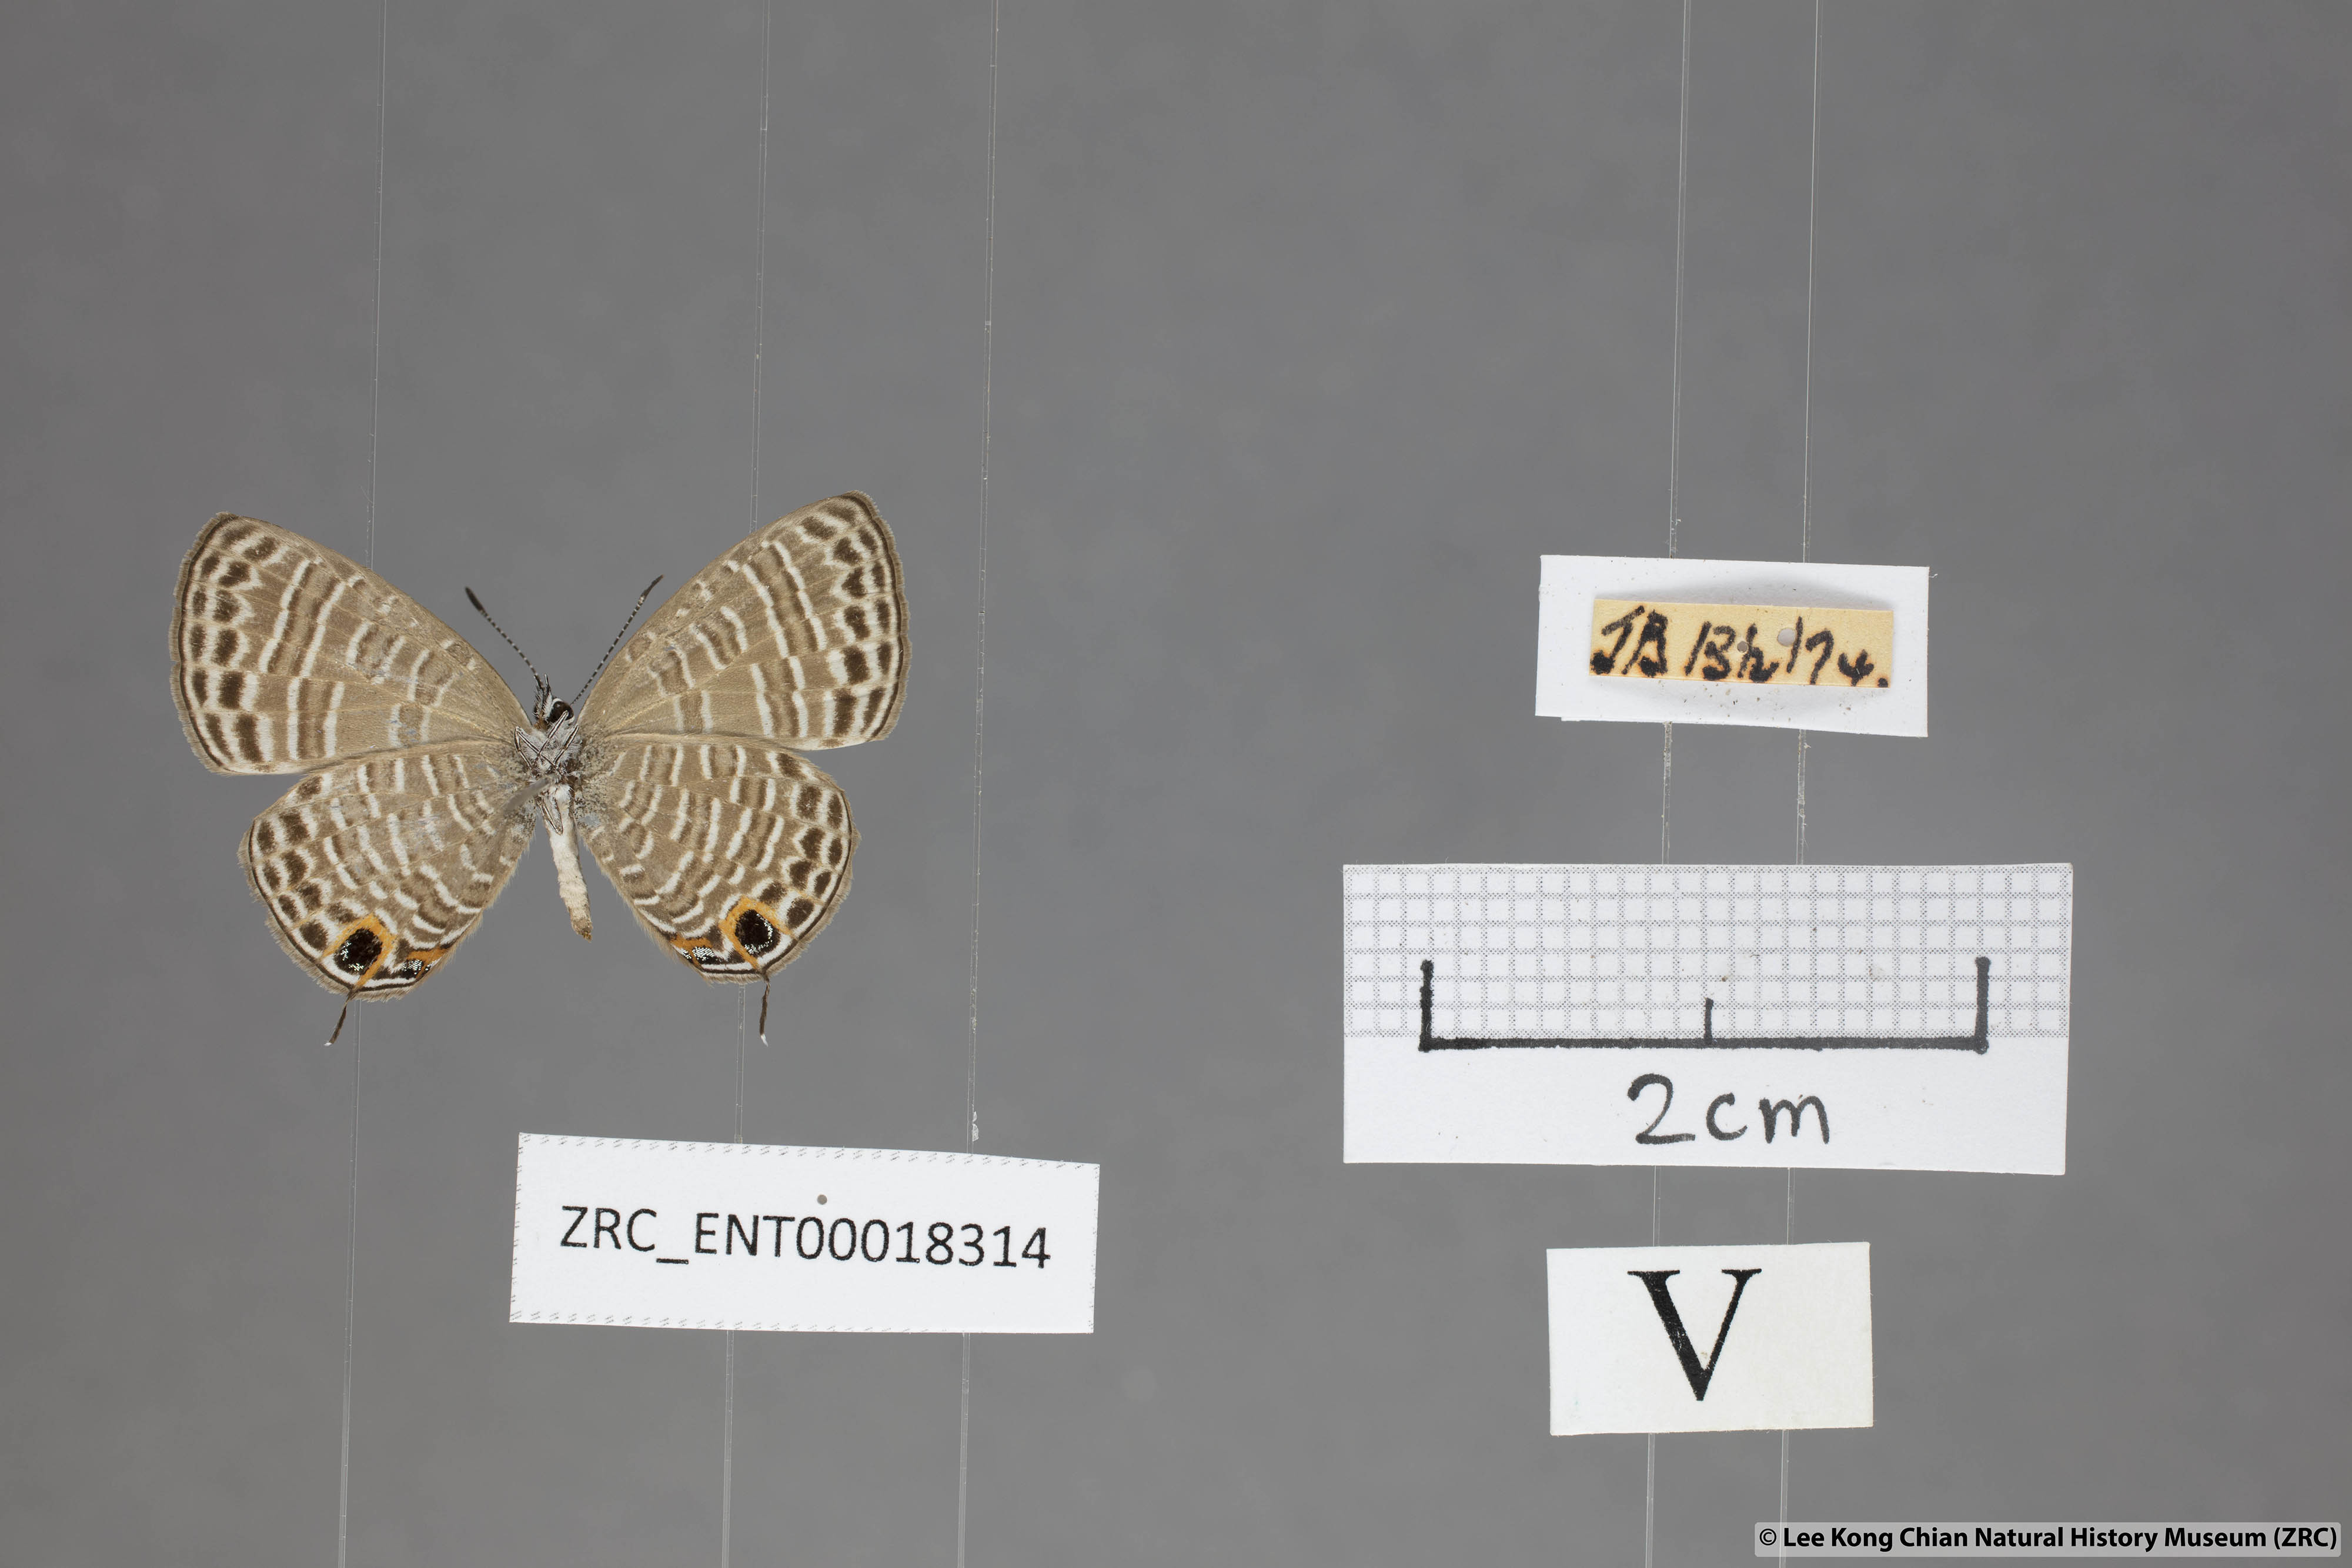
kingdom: Animalia
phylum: Arthropoda
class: Insecta
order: Lepidoptera
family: Lycaenidae
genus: Nacaduba
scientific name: Nacaduba beroe
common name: Opaque sixline blue
